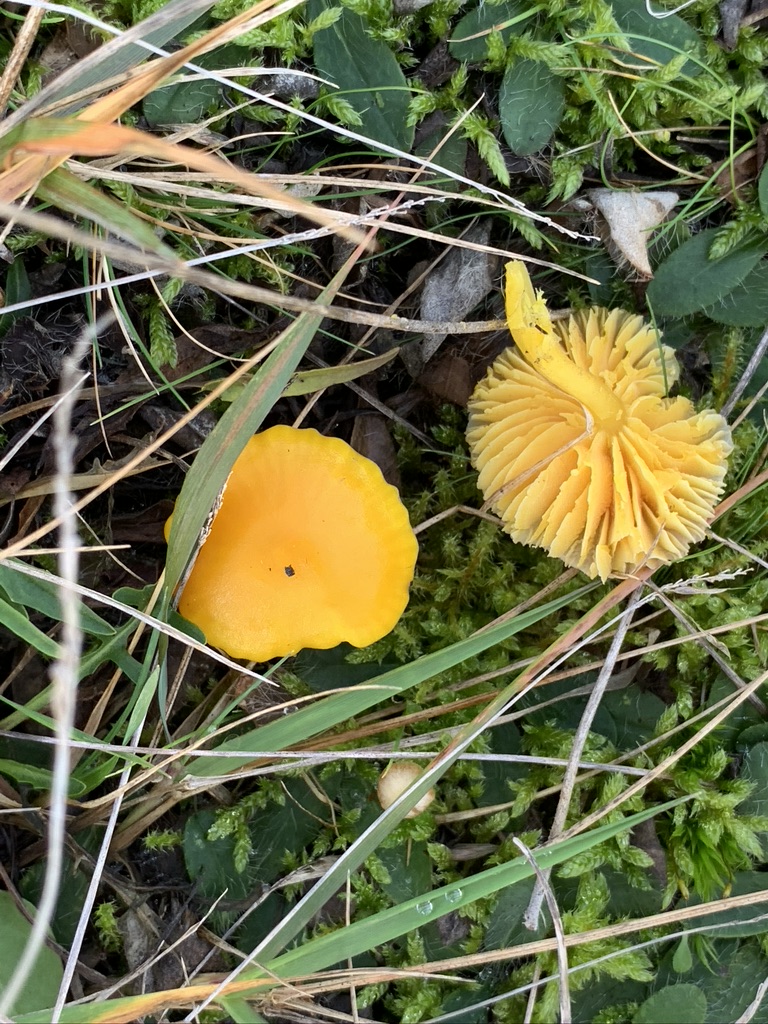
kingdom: Fungi
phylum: Basidiomycota
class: Agaricomycetes
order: Agaricales
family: Hygrophoraceae
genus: Hygrocybe
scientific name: Hygrocybe ceracea
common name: voksgul vokshat
